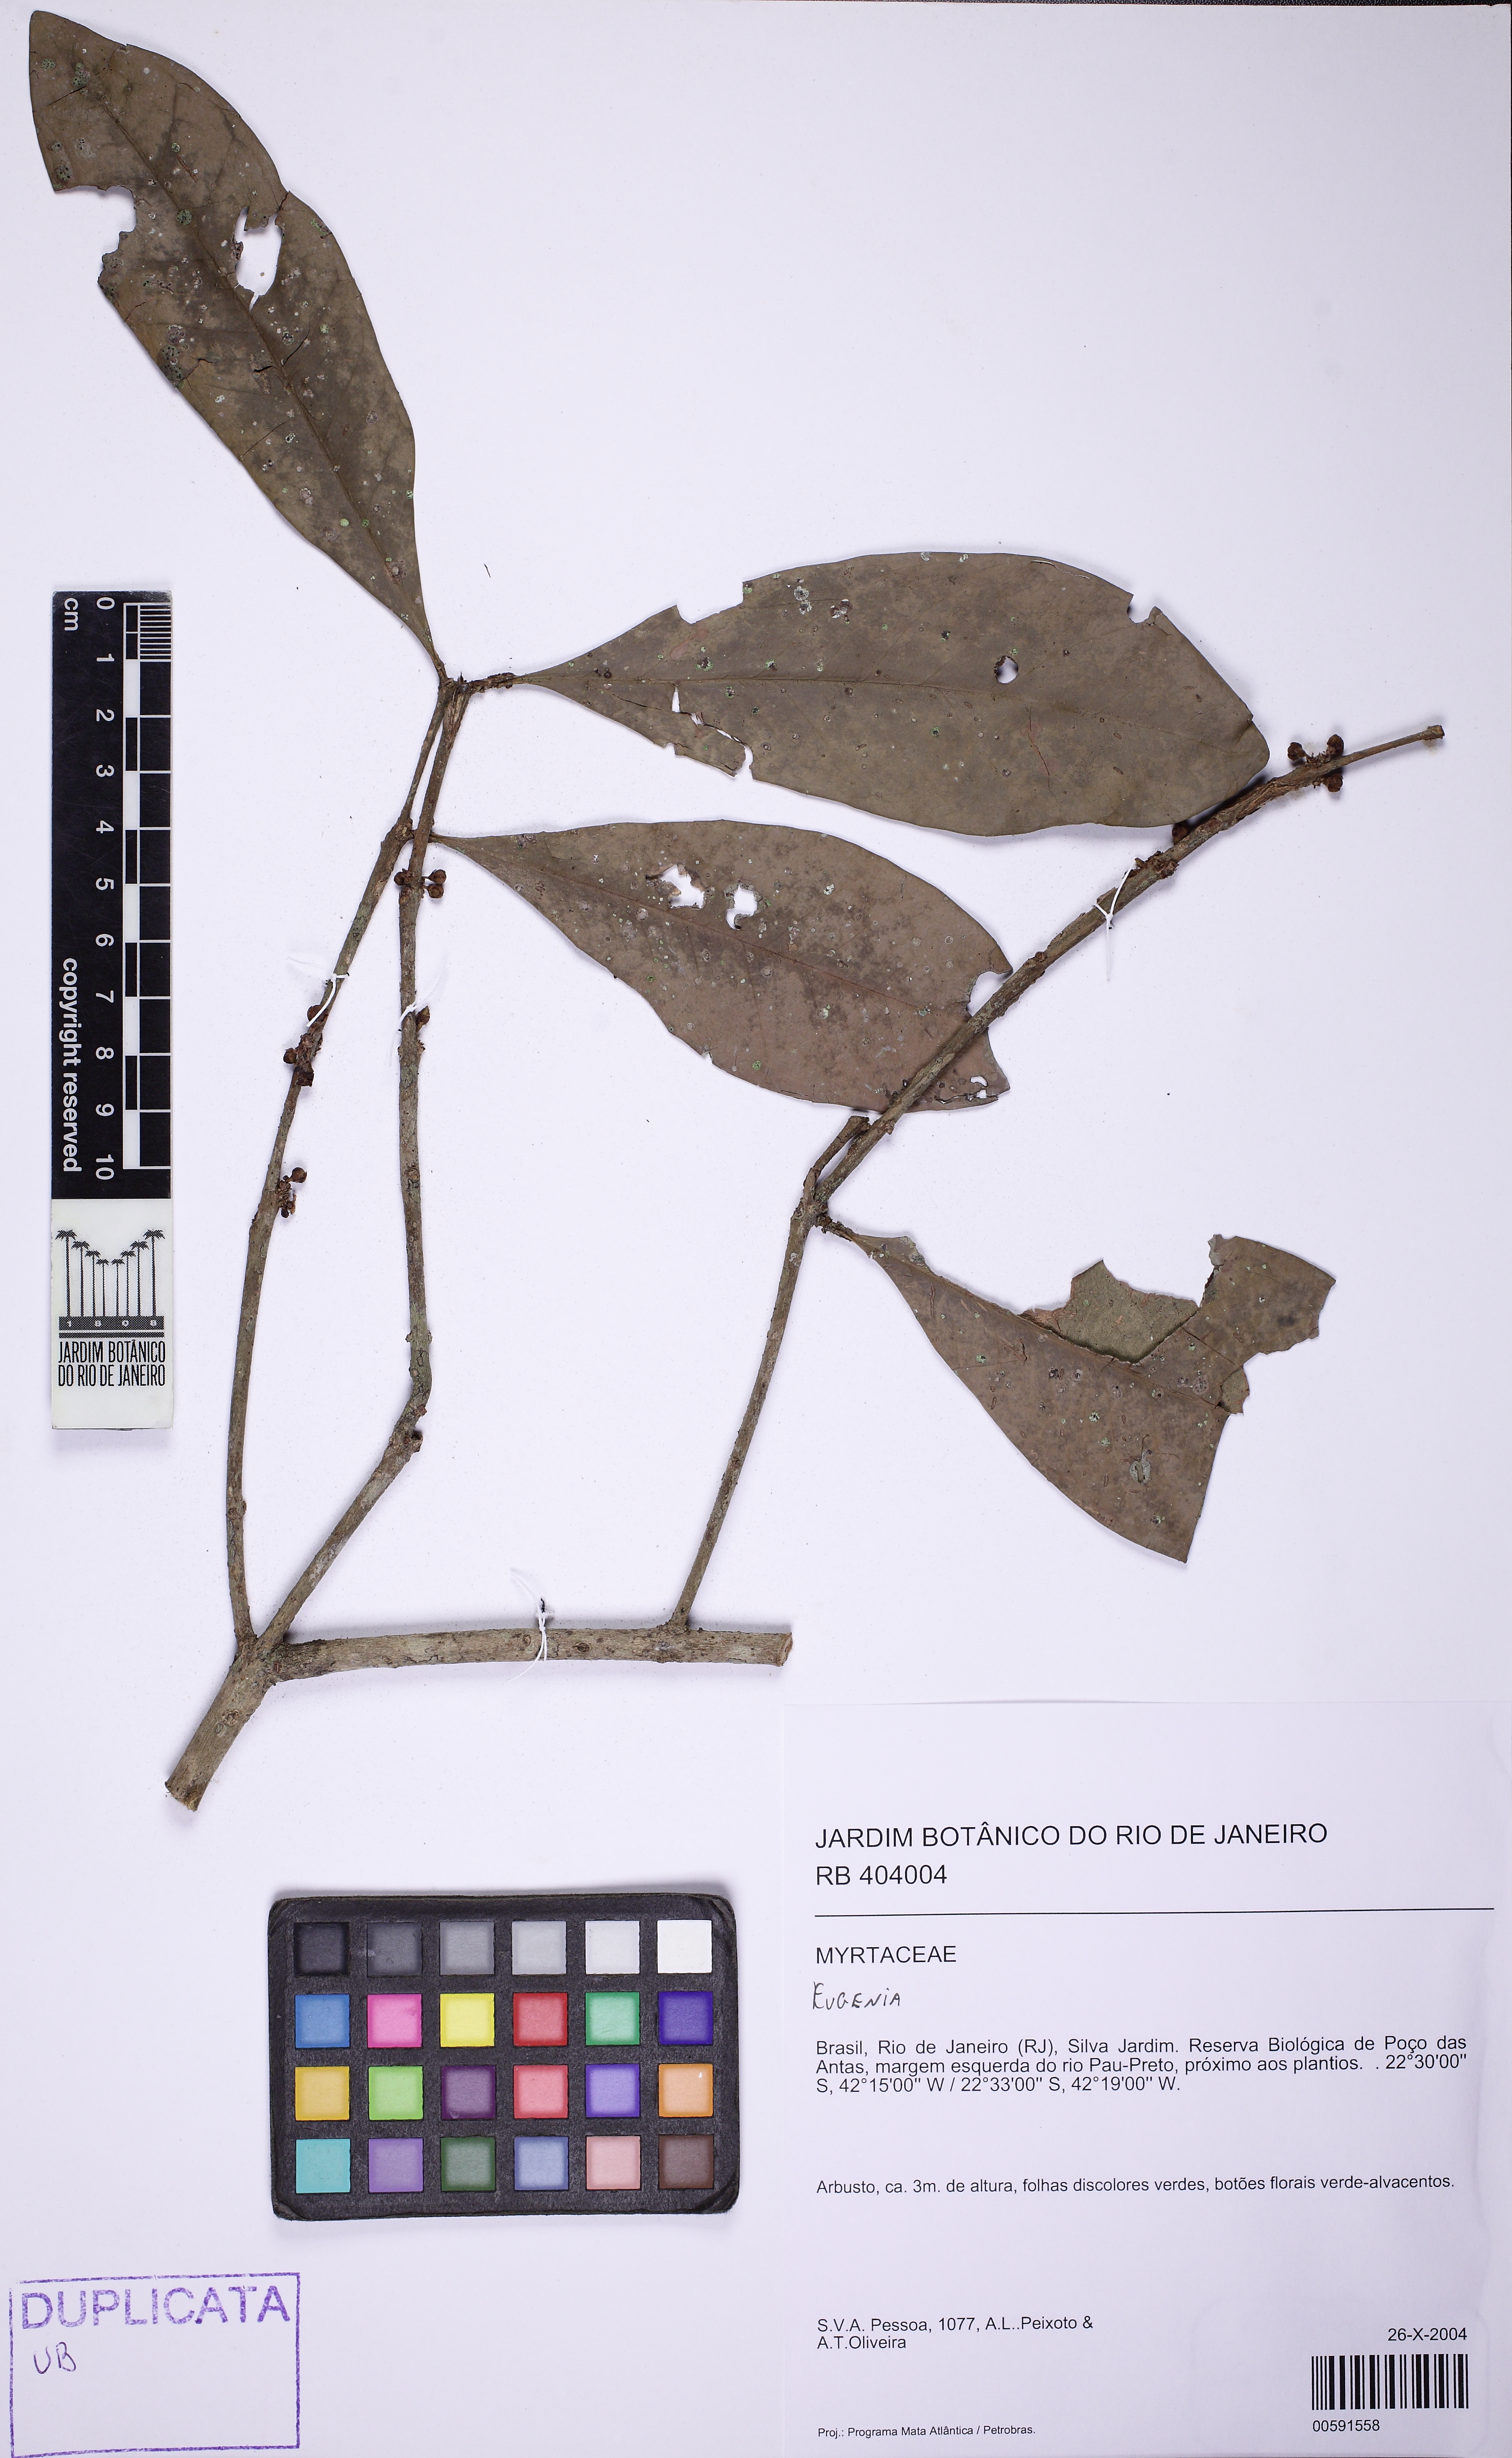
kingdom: Plantae
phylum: Tracheophyta
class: Magnoliopsida
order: Myrtales
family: Myrtaceae
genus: Eugenia
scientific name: Eugenia neoglomerata
